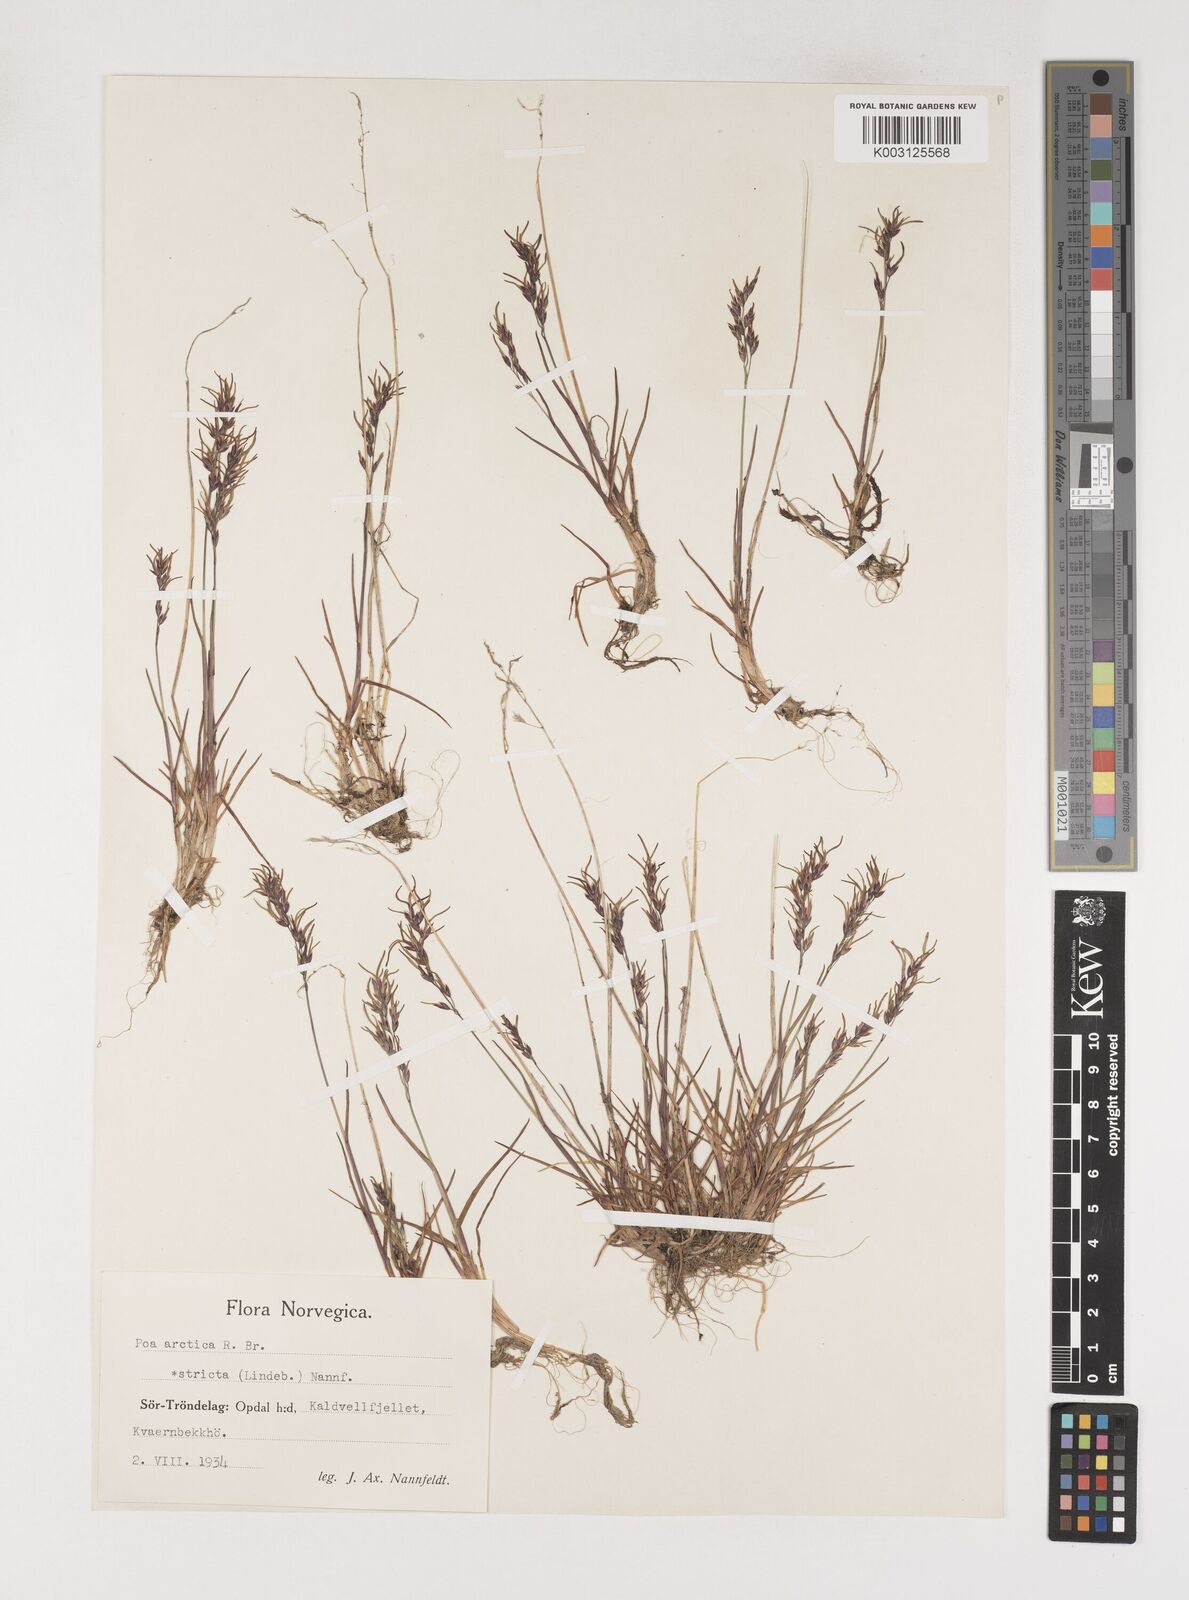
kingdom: Plantae
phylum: Tracheophyta
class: Liliopsida
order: Poales
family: Poaceae
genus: Poa
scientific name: Poa arctica
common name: Arctic bluegrass
